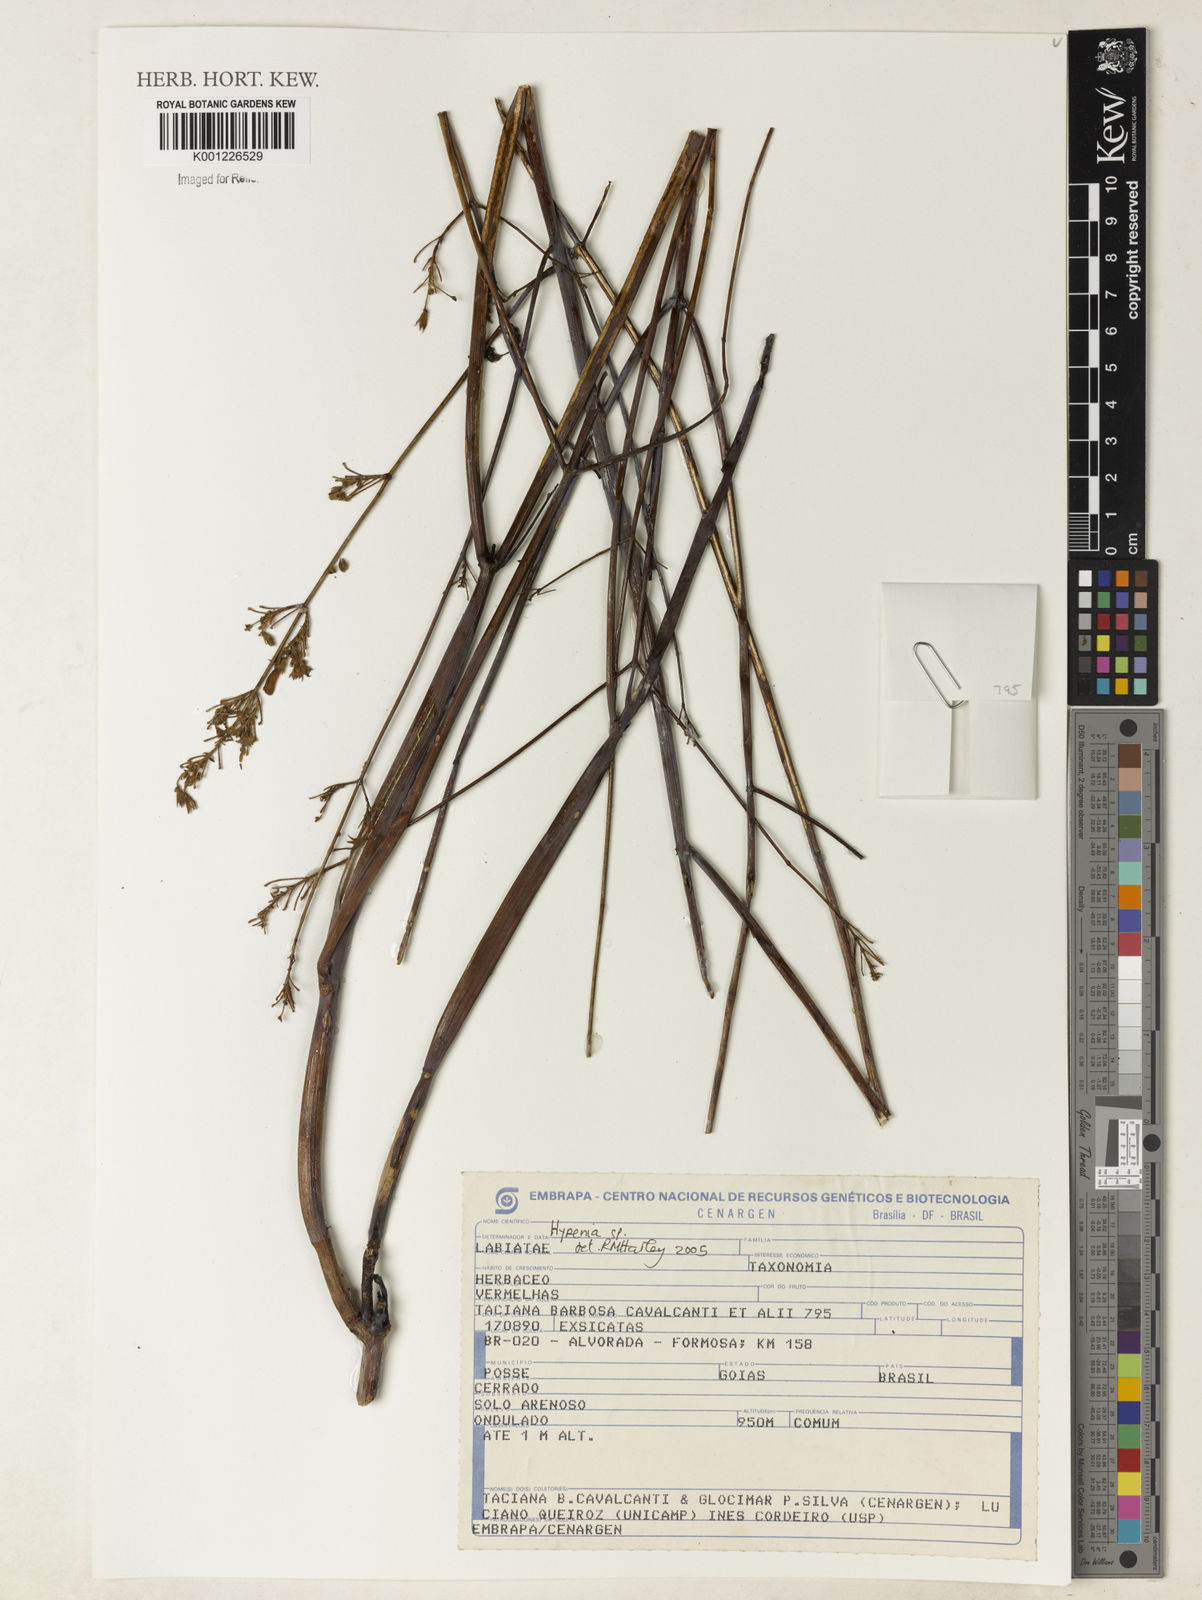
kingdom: Plantae
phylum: Tracheophyta
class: Magnoliopsida
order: Lamiales
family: Lamiaceae
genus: Hypenia
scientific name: Hypenia
